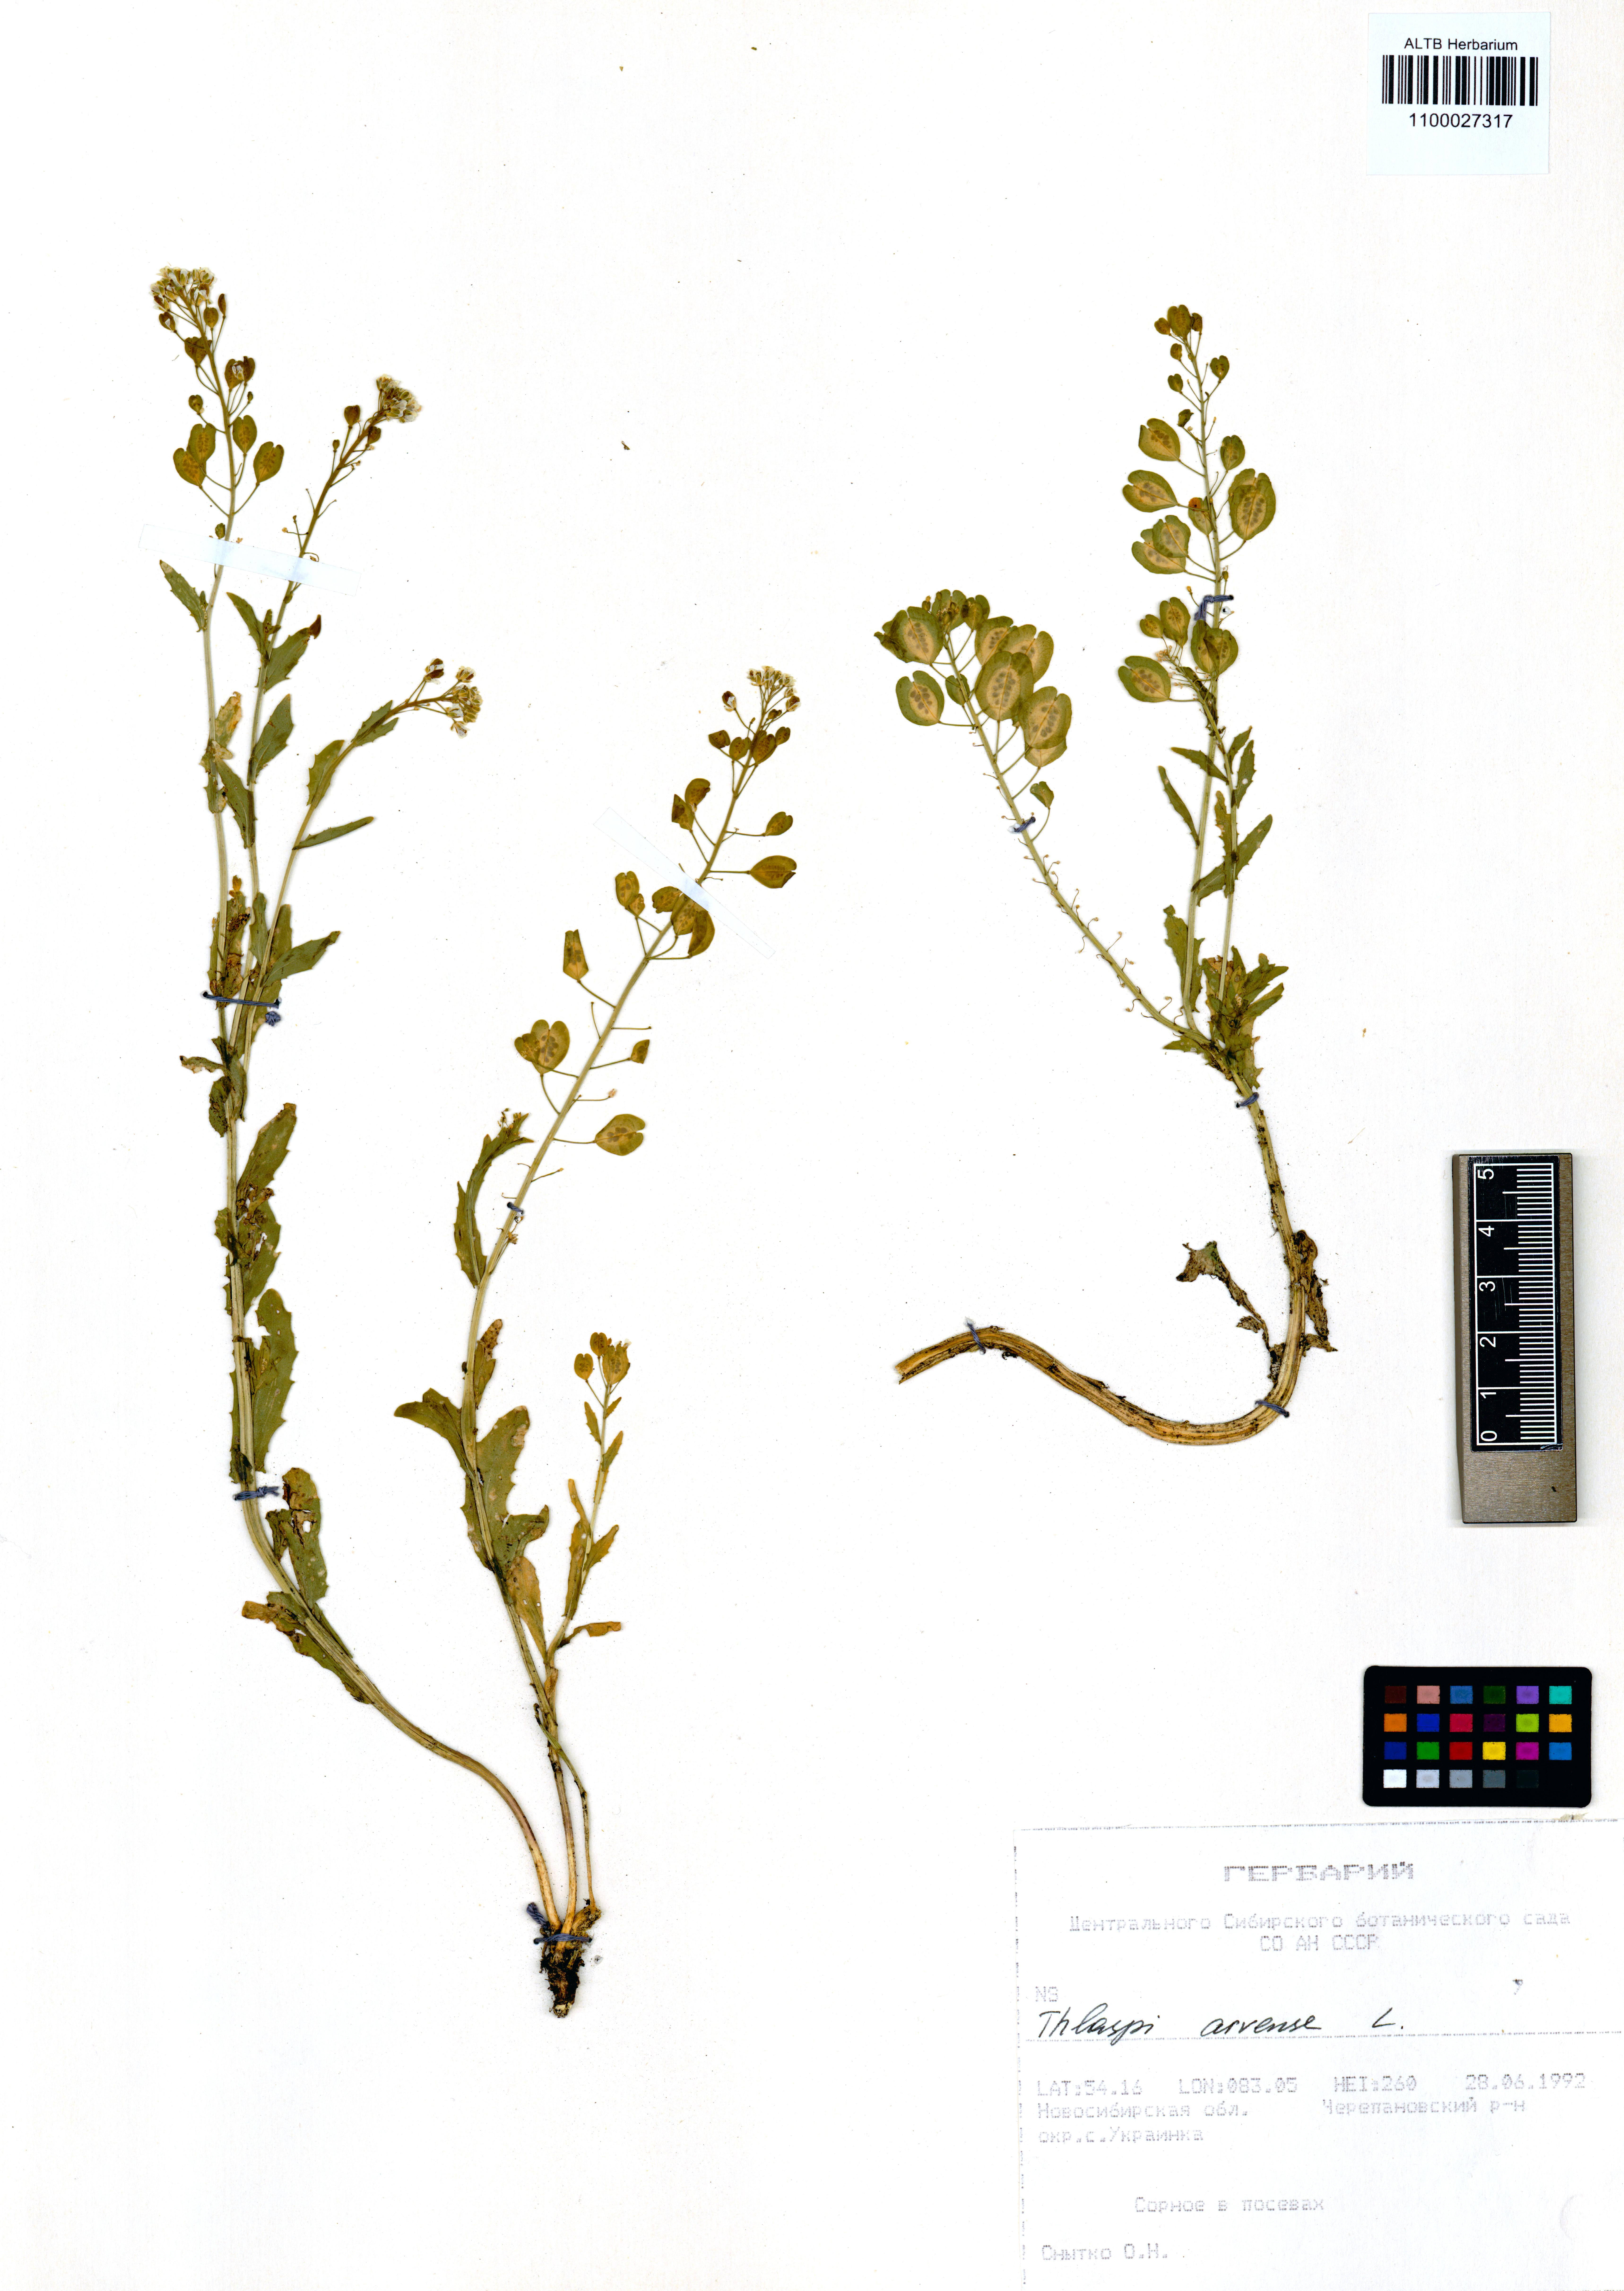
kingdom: Plantae
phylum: Tracheophyta
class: Magnoliopsida
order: Brassicales
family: Brassicaceae
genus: Thlaspi
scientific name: Thlaspi arvense
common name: Field pennycress
